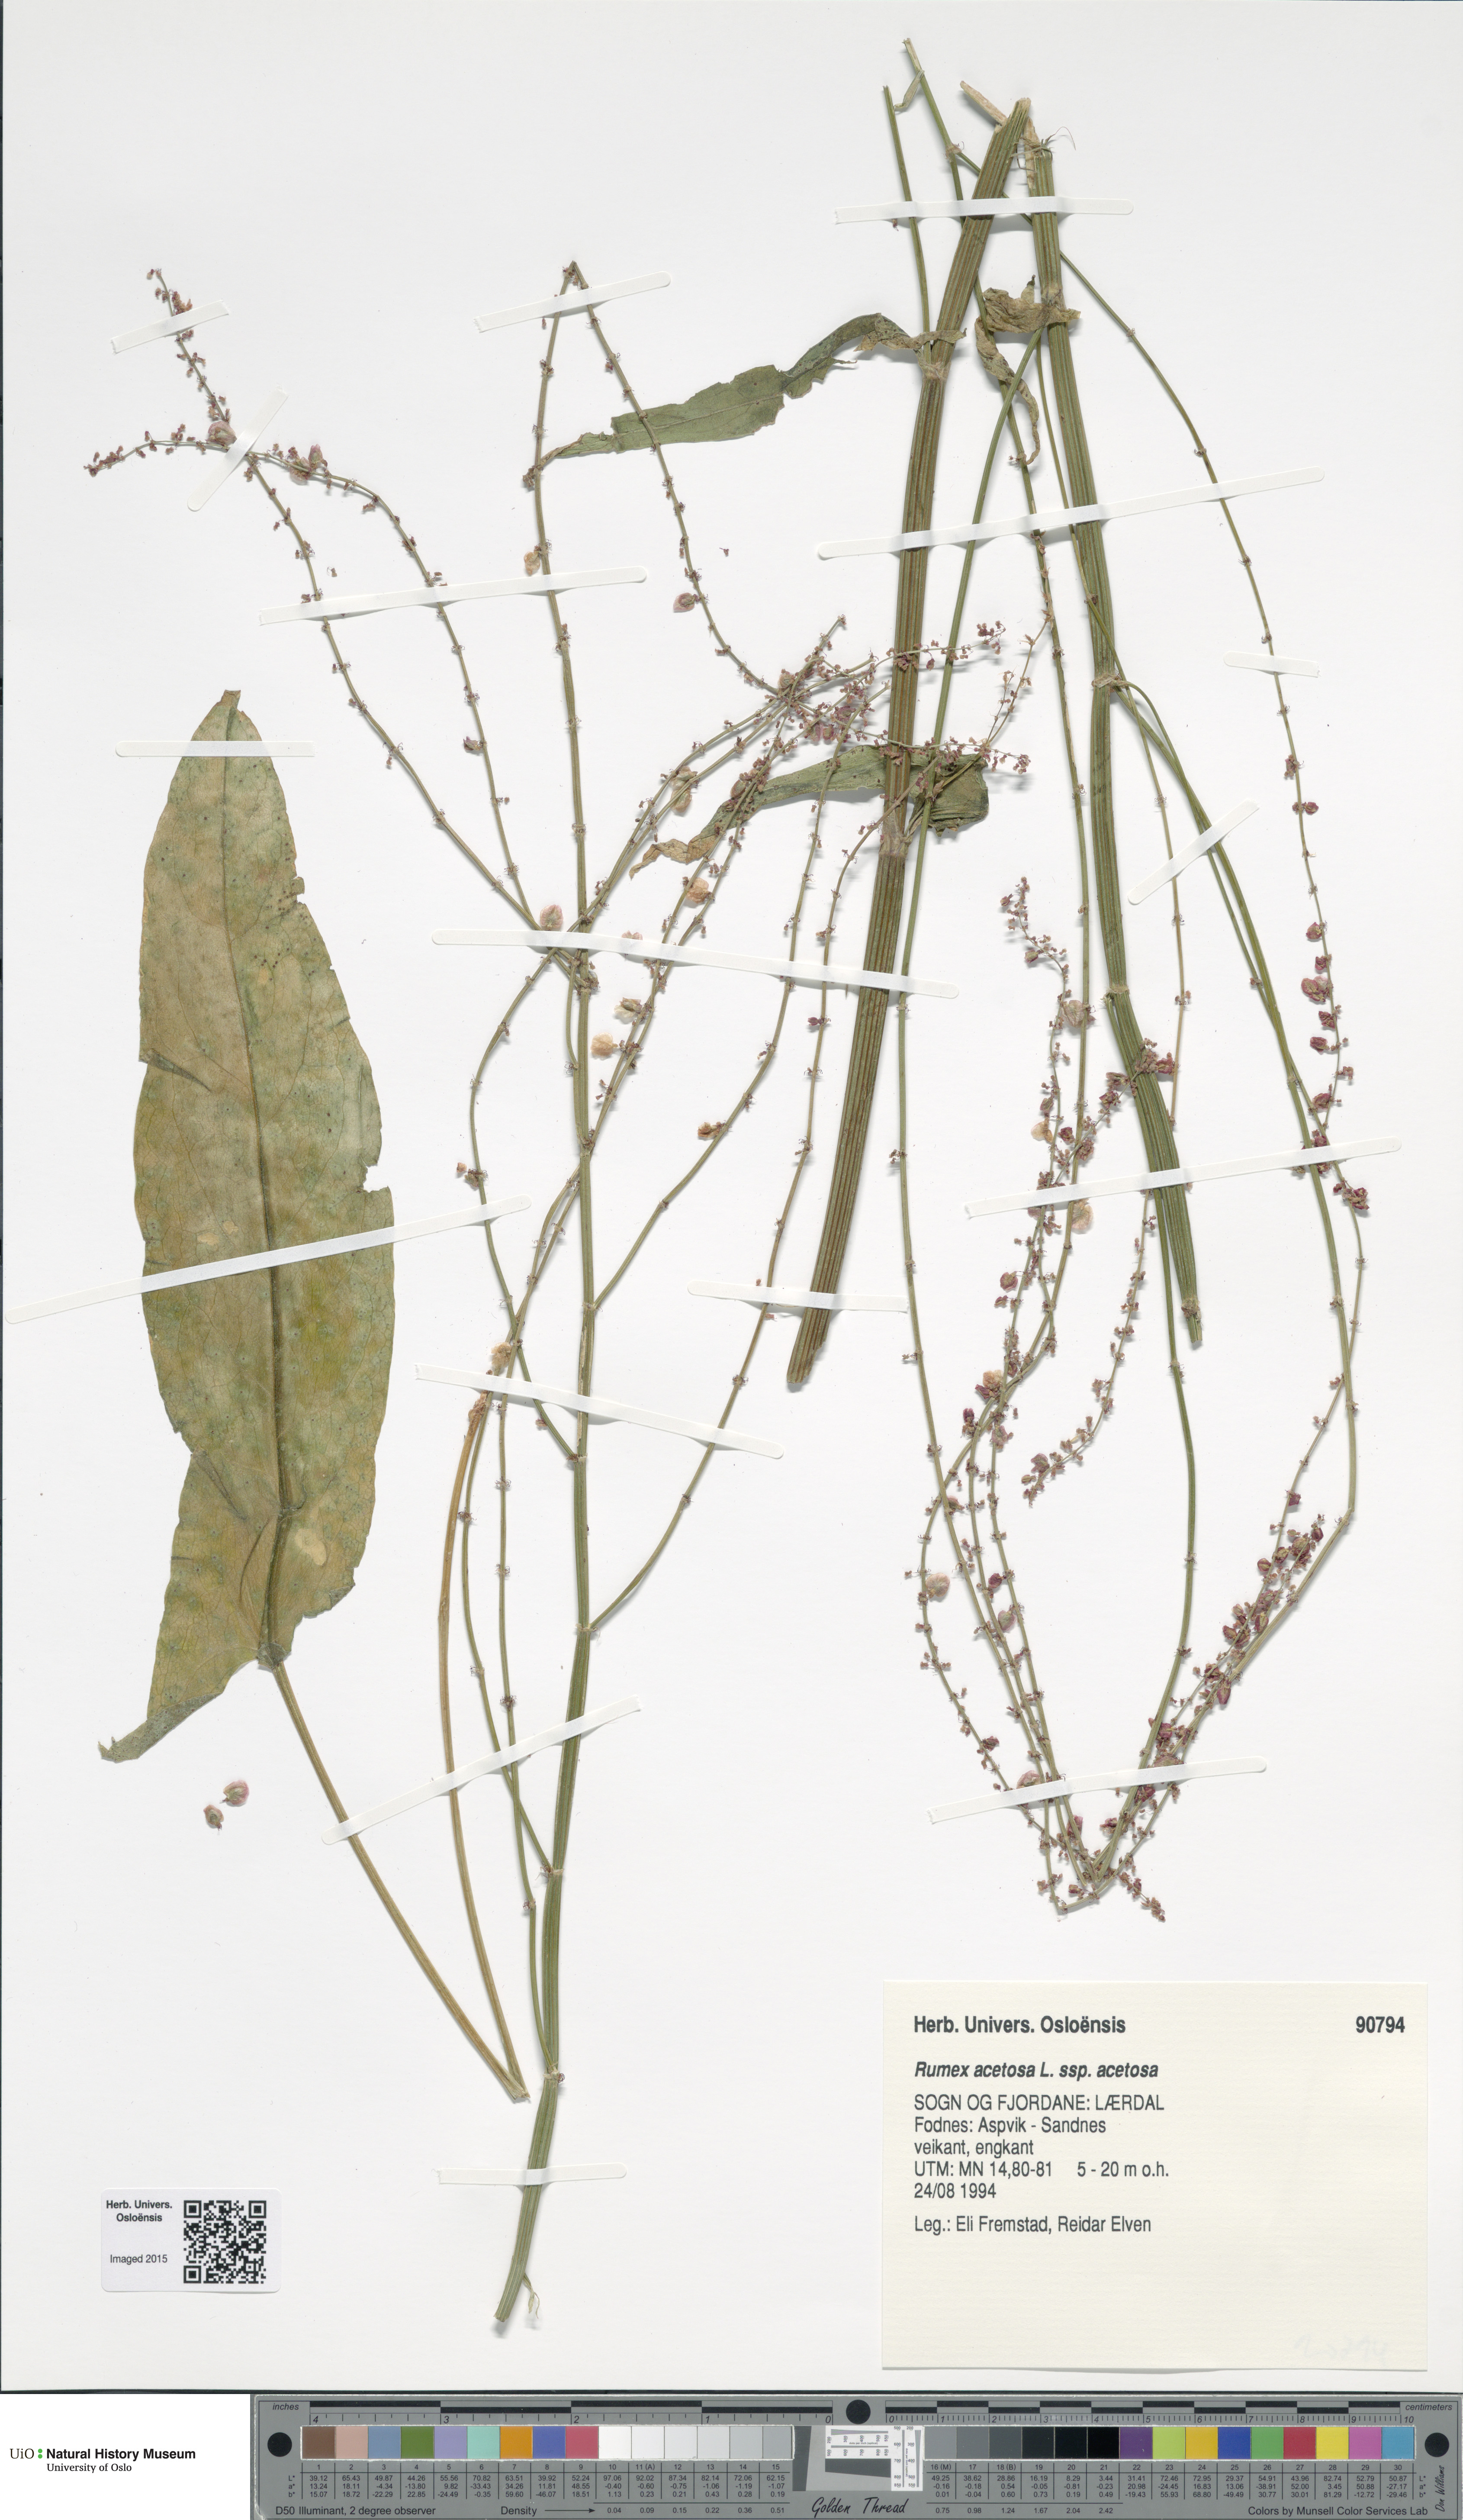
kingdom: Plantae
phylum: Tracheophyta
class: Magnoliopsida
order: Caryophyllales
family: Polygonaceae
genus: Rumex
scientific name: Rumex acetosa
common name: Garden sorrel
